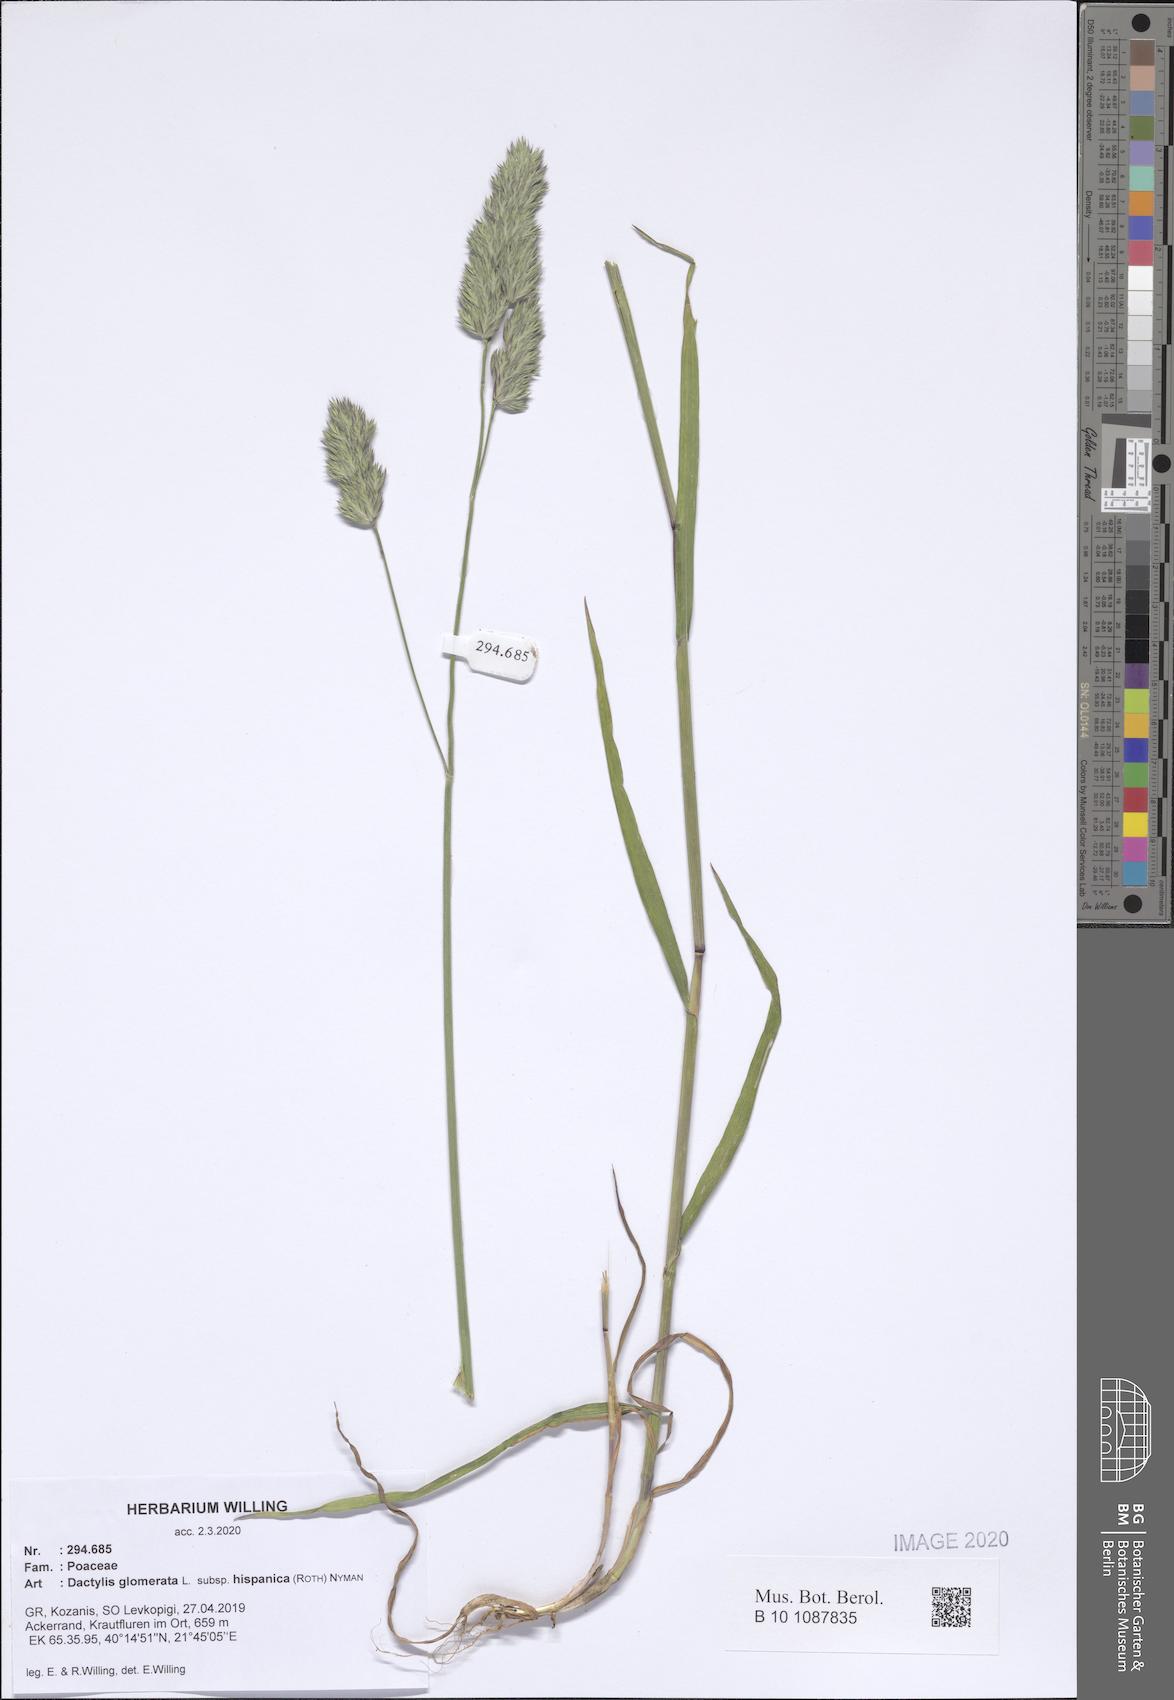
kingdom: Plantae
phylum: Tracheophyta
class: Liliopsida
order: Poales
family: Poaceae
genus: Dactylis
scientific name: Dactylis glomerata
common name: Orchardgrass
